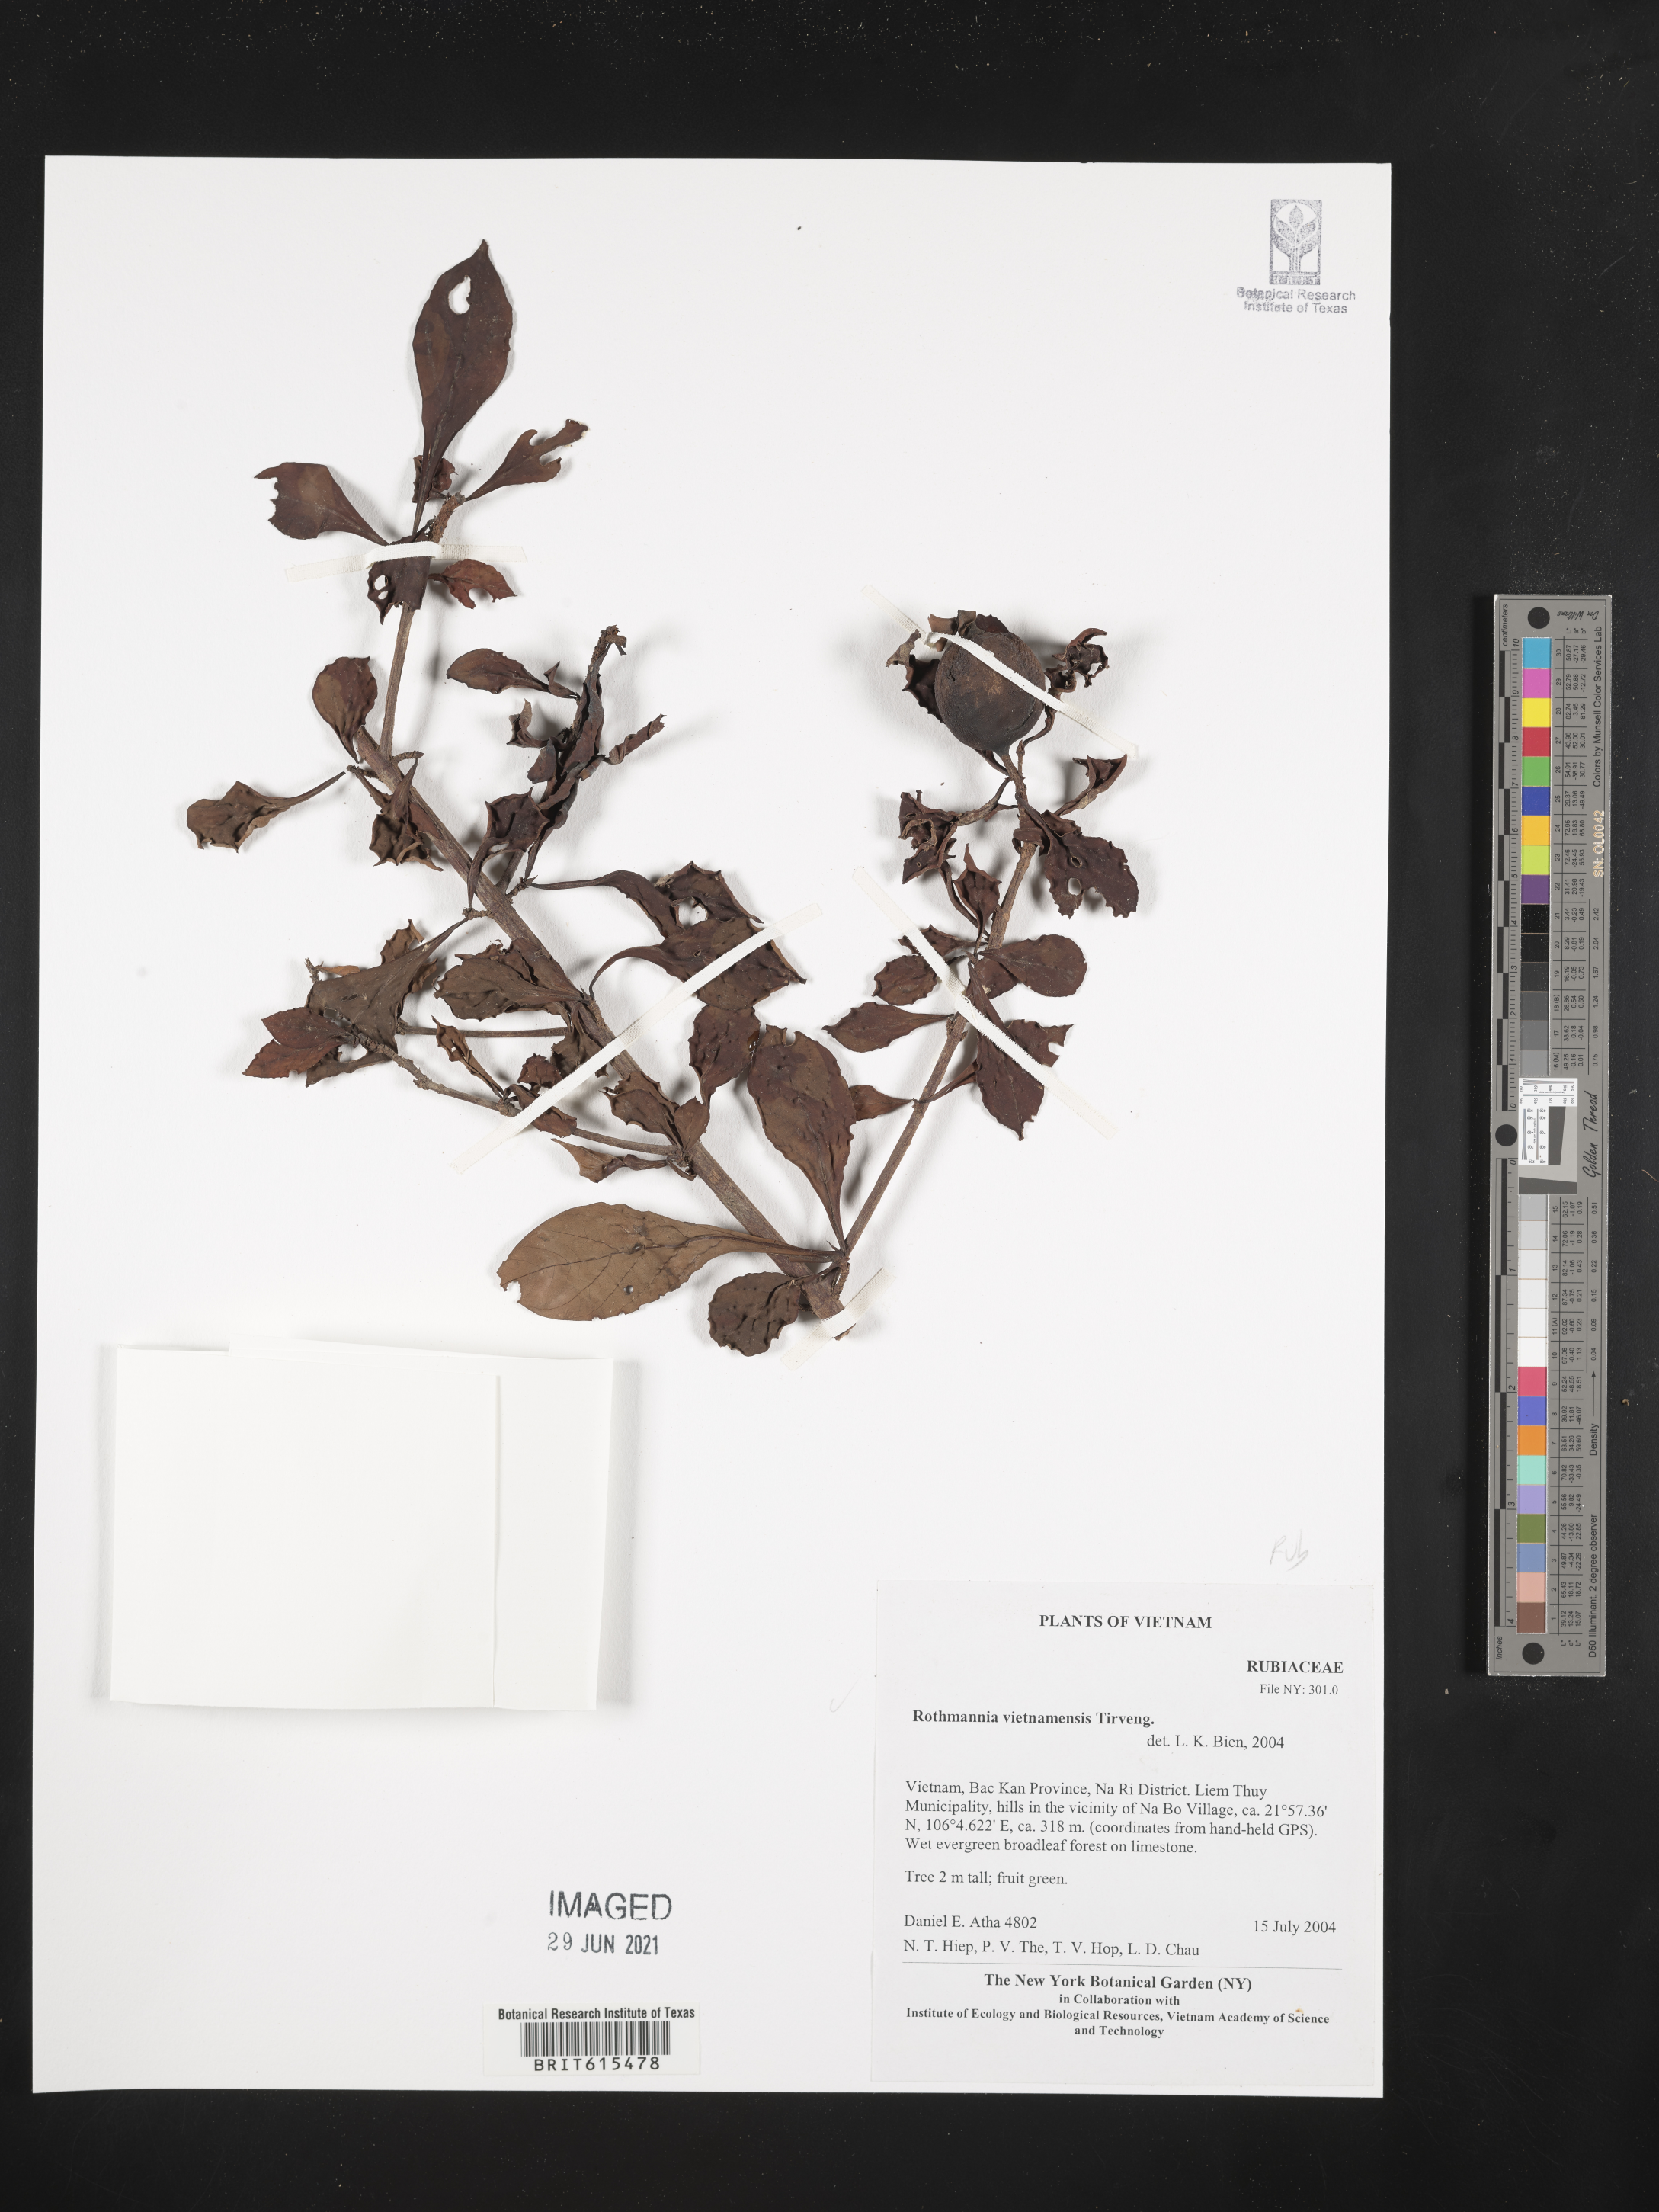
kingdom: Plantae
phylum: Tracheophyta
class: Magnoliopsida
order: Gentianales
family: Rubiaceae
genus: Ridsdalea
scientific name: Ridsdalea vietnamensis
